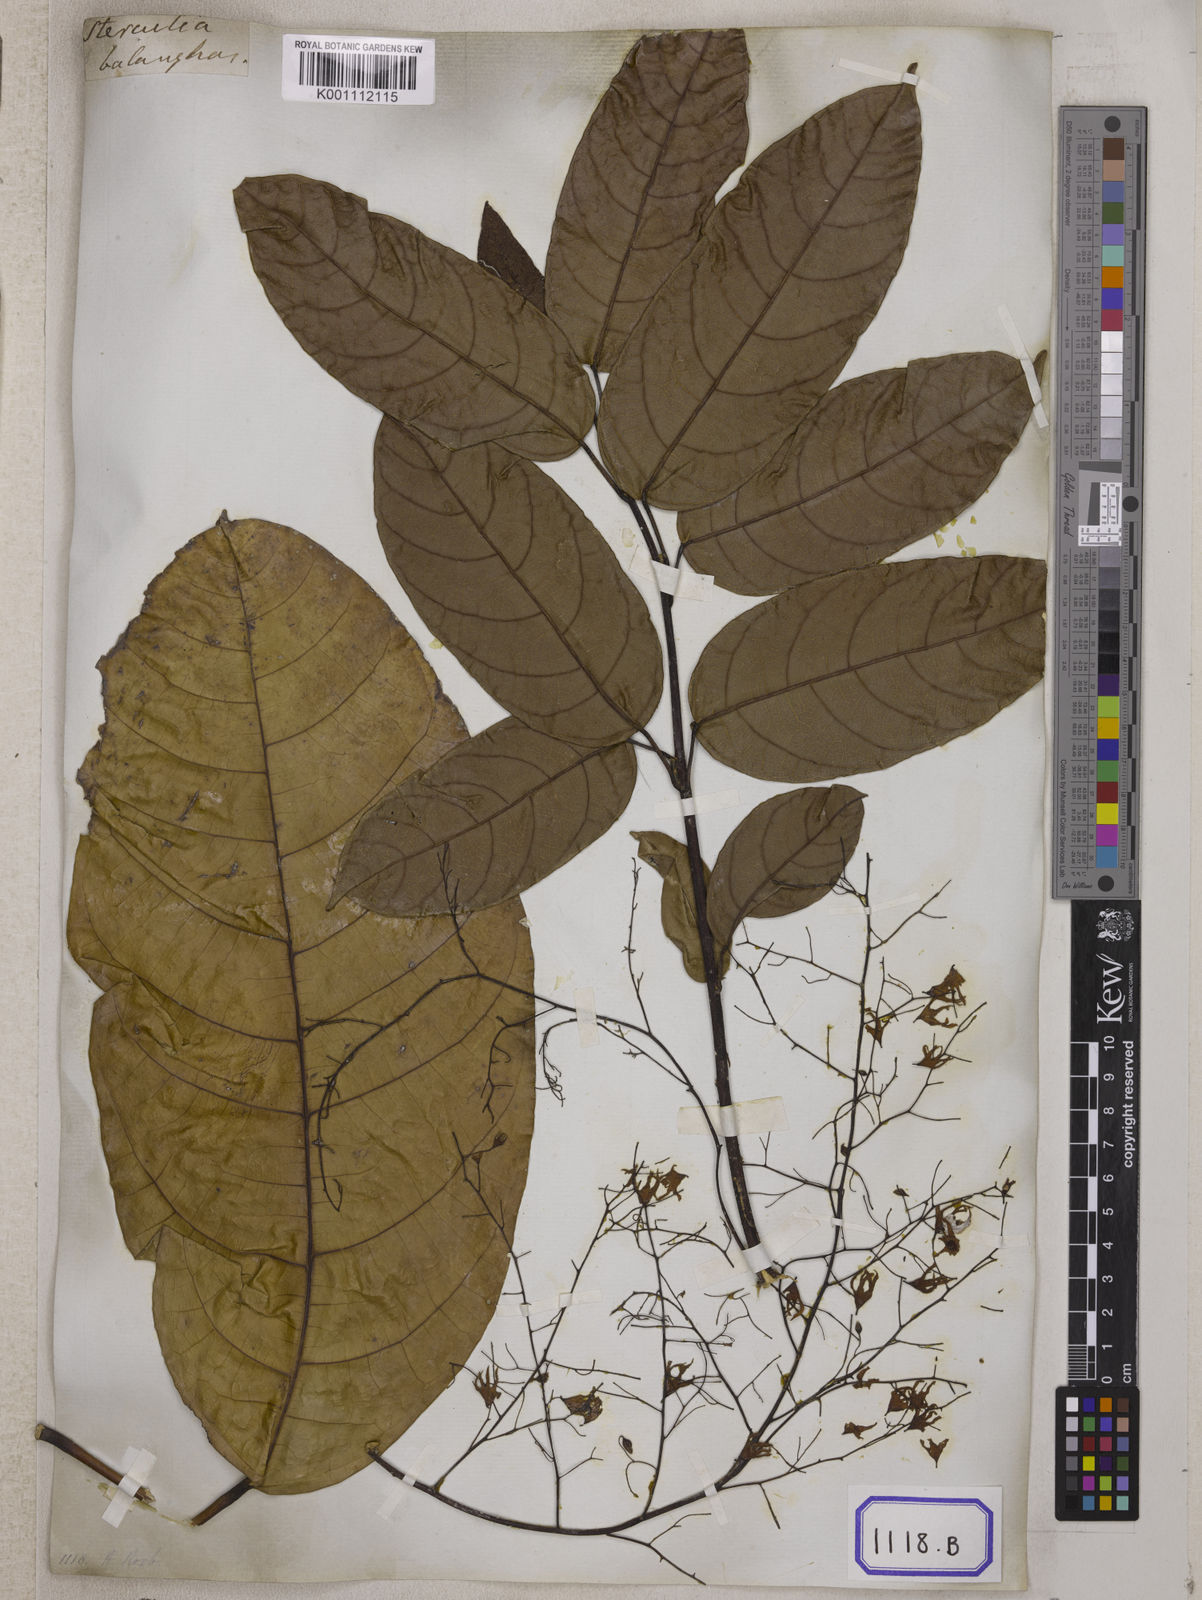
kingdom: Plantae
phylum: Tracheophyta
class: Magnoliopsida
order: Malvales
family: Malvaceae
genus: Sterculia
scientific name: Sterculia balanghas
